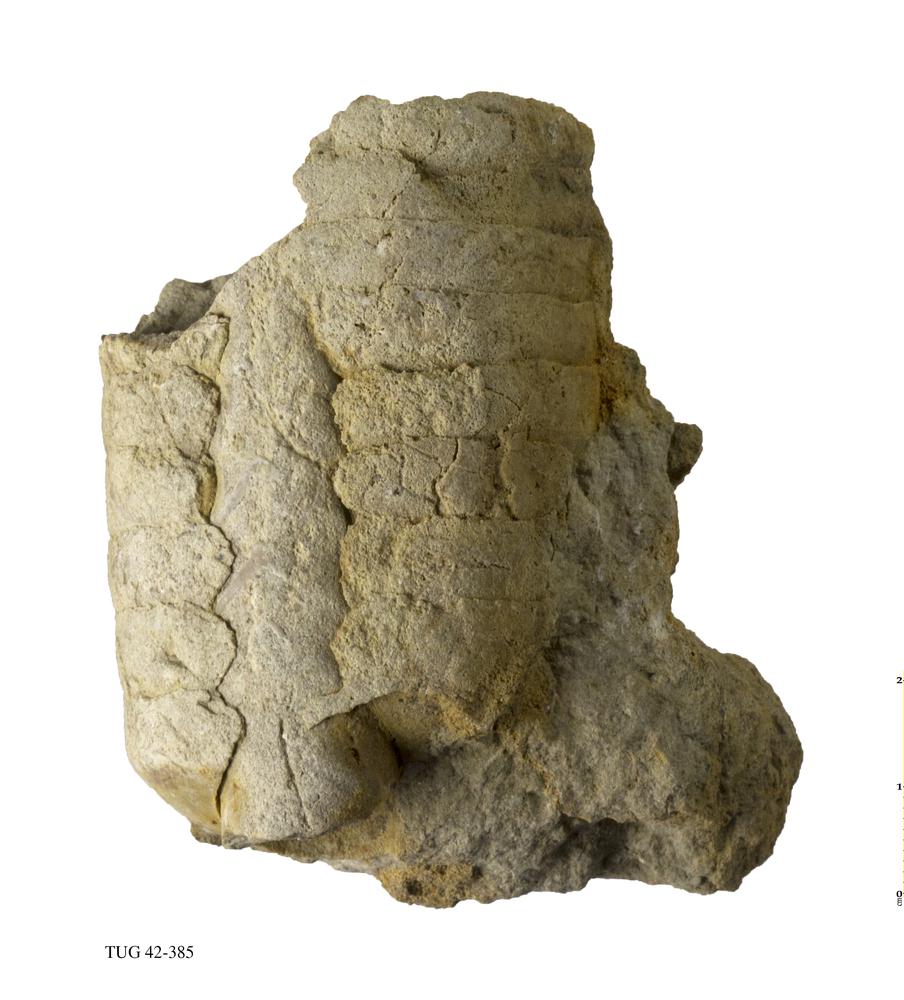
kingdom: Animalia
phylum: Mollusca
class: Cephalopoda
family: Endoceratidae
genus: Proterovaginoceras
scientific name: Proterovaginoceras Endoceras incognitum
